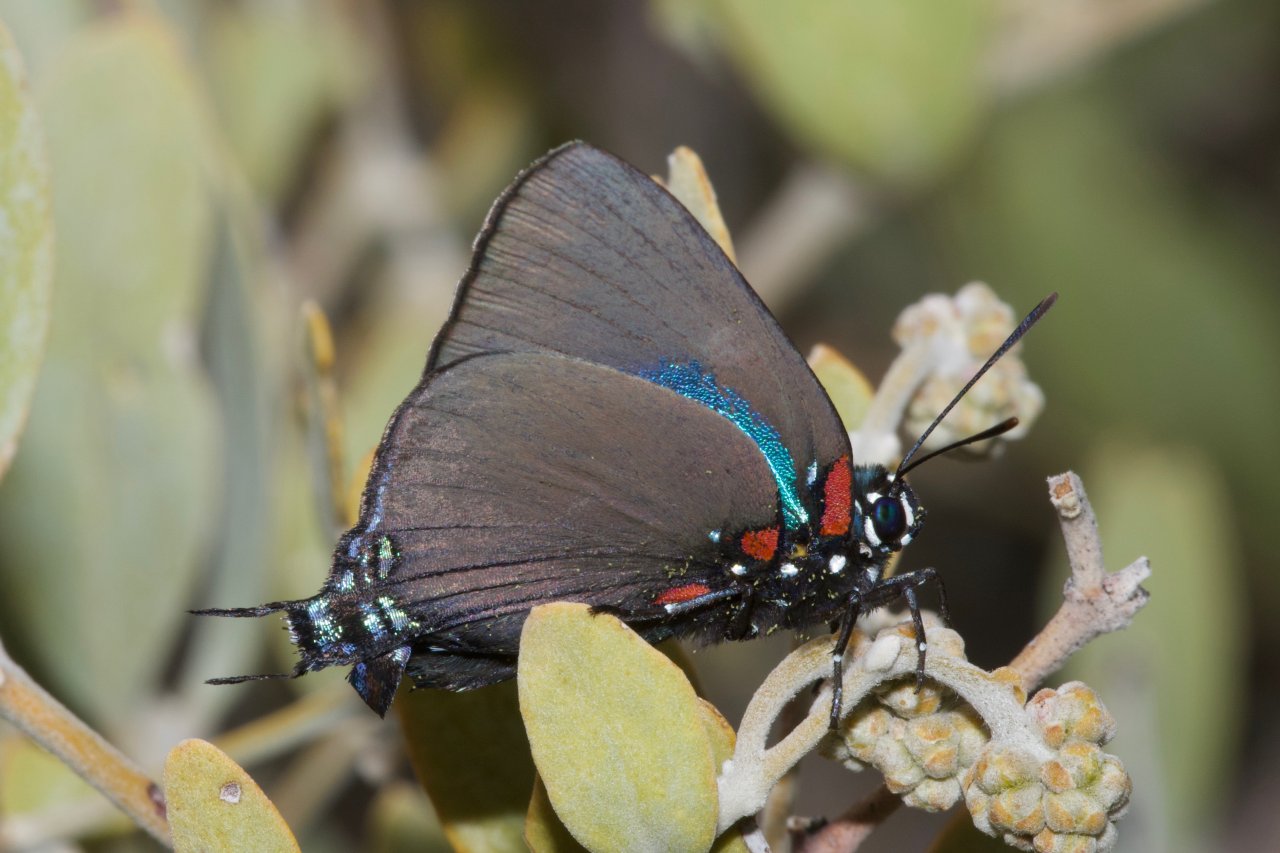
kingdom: Animalia
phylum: Arthropoda
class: Insecta
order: Lepidoptera
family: Lycaenidae
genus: Atlides
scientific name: Atlides halesus
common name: Great Purple Hairstreak
